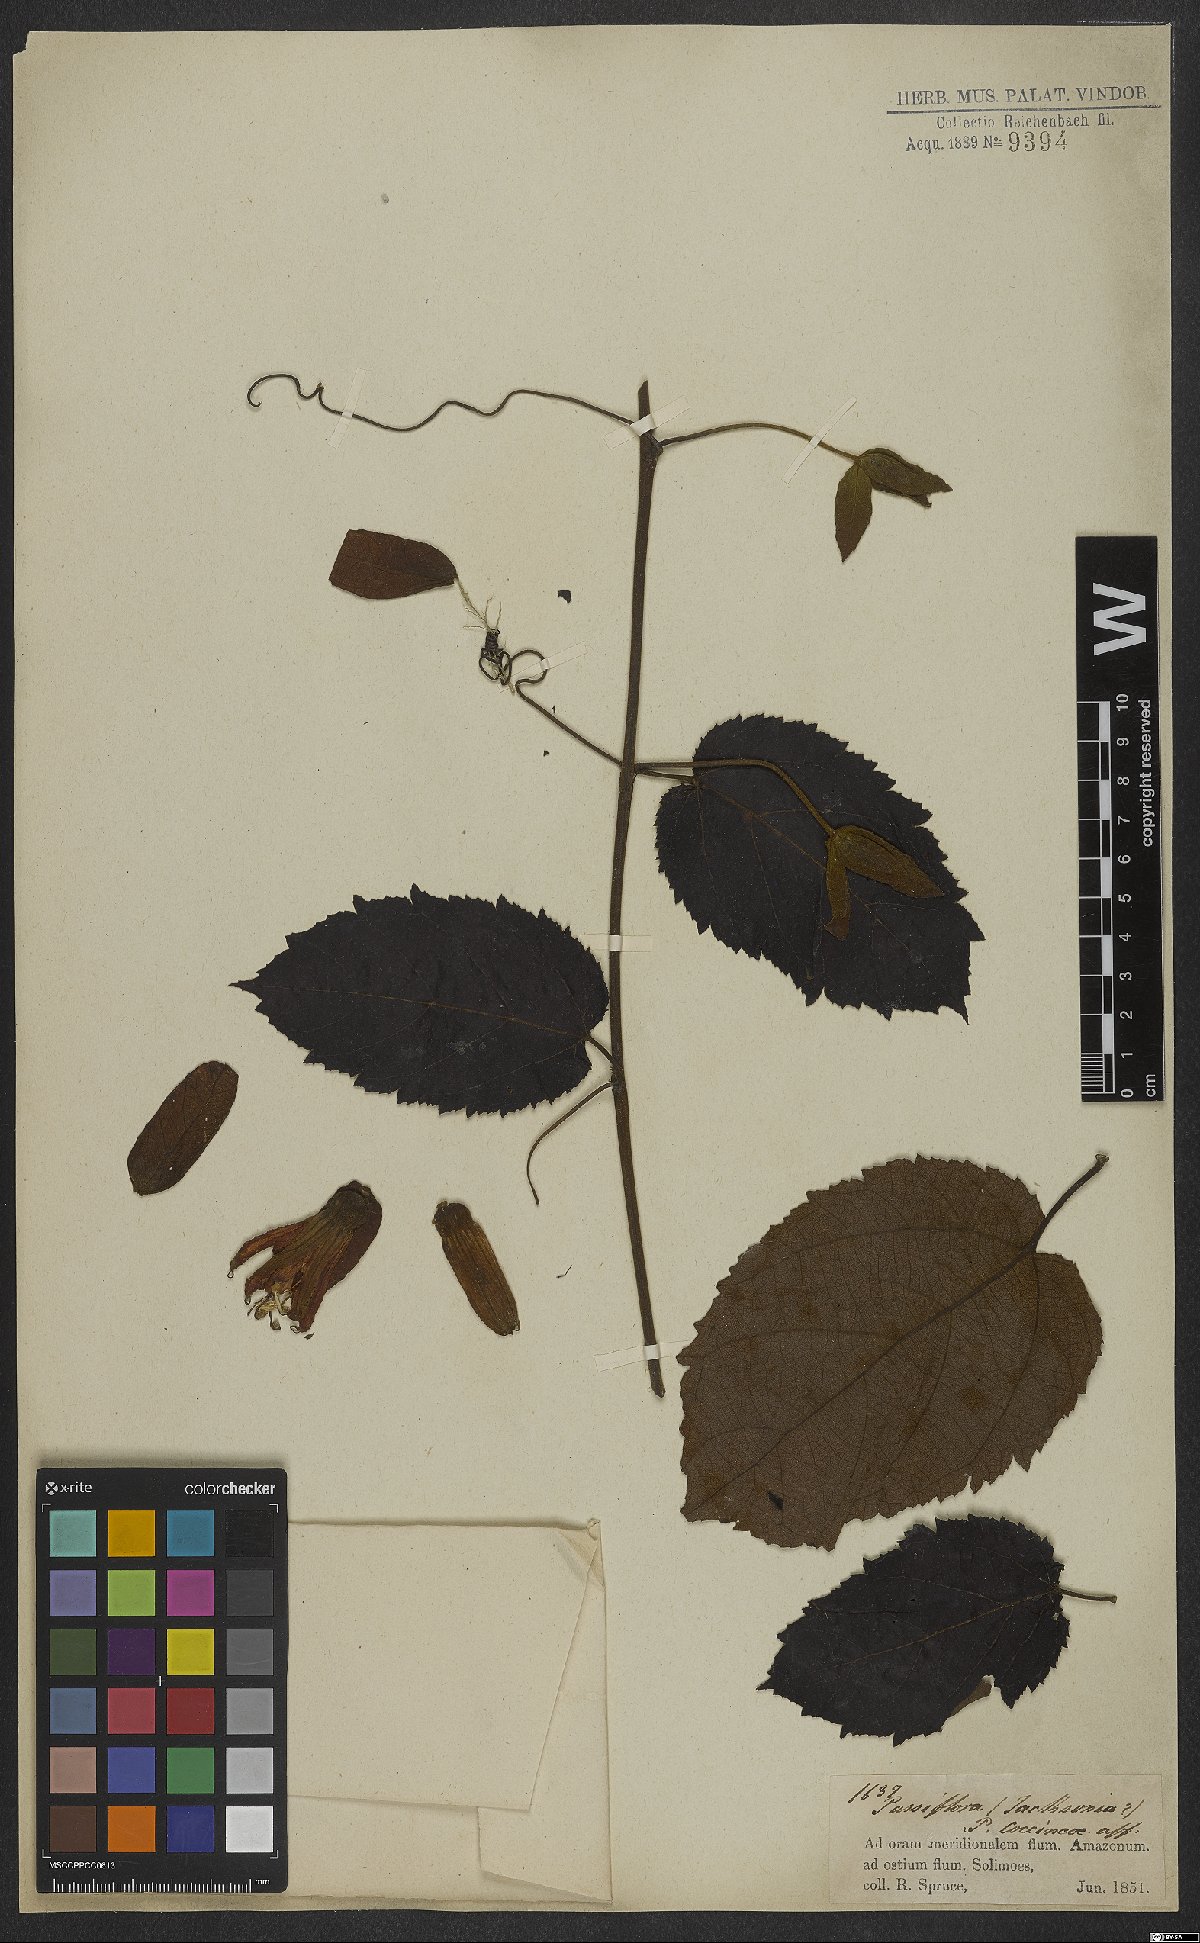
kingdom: Plantae
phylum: Tracheophyta
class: Magnoliopsida
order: Malpighiales
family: Passifloraceae
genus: Passiflora
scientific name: Passiflora coccinea
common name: Scarlet passionflower
